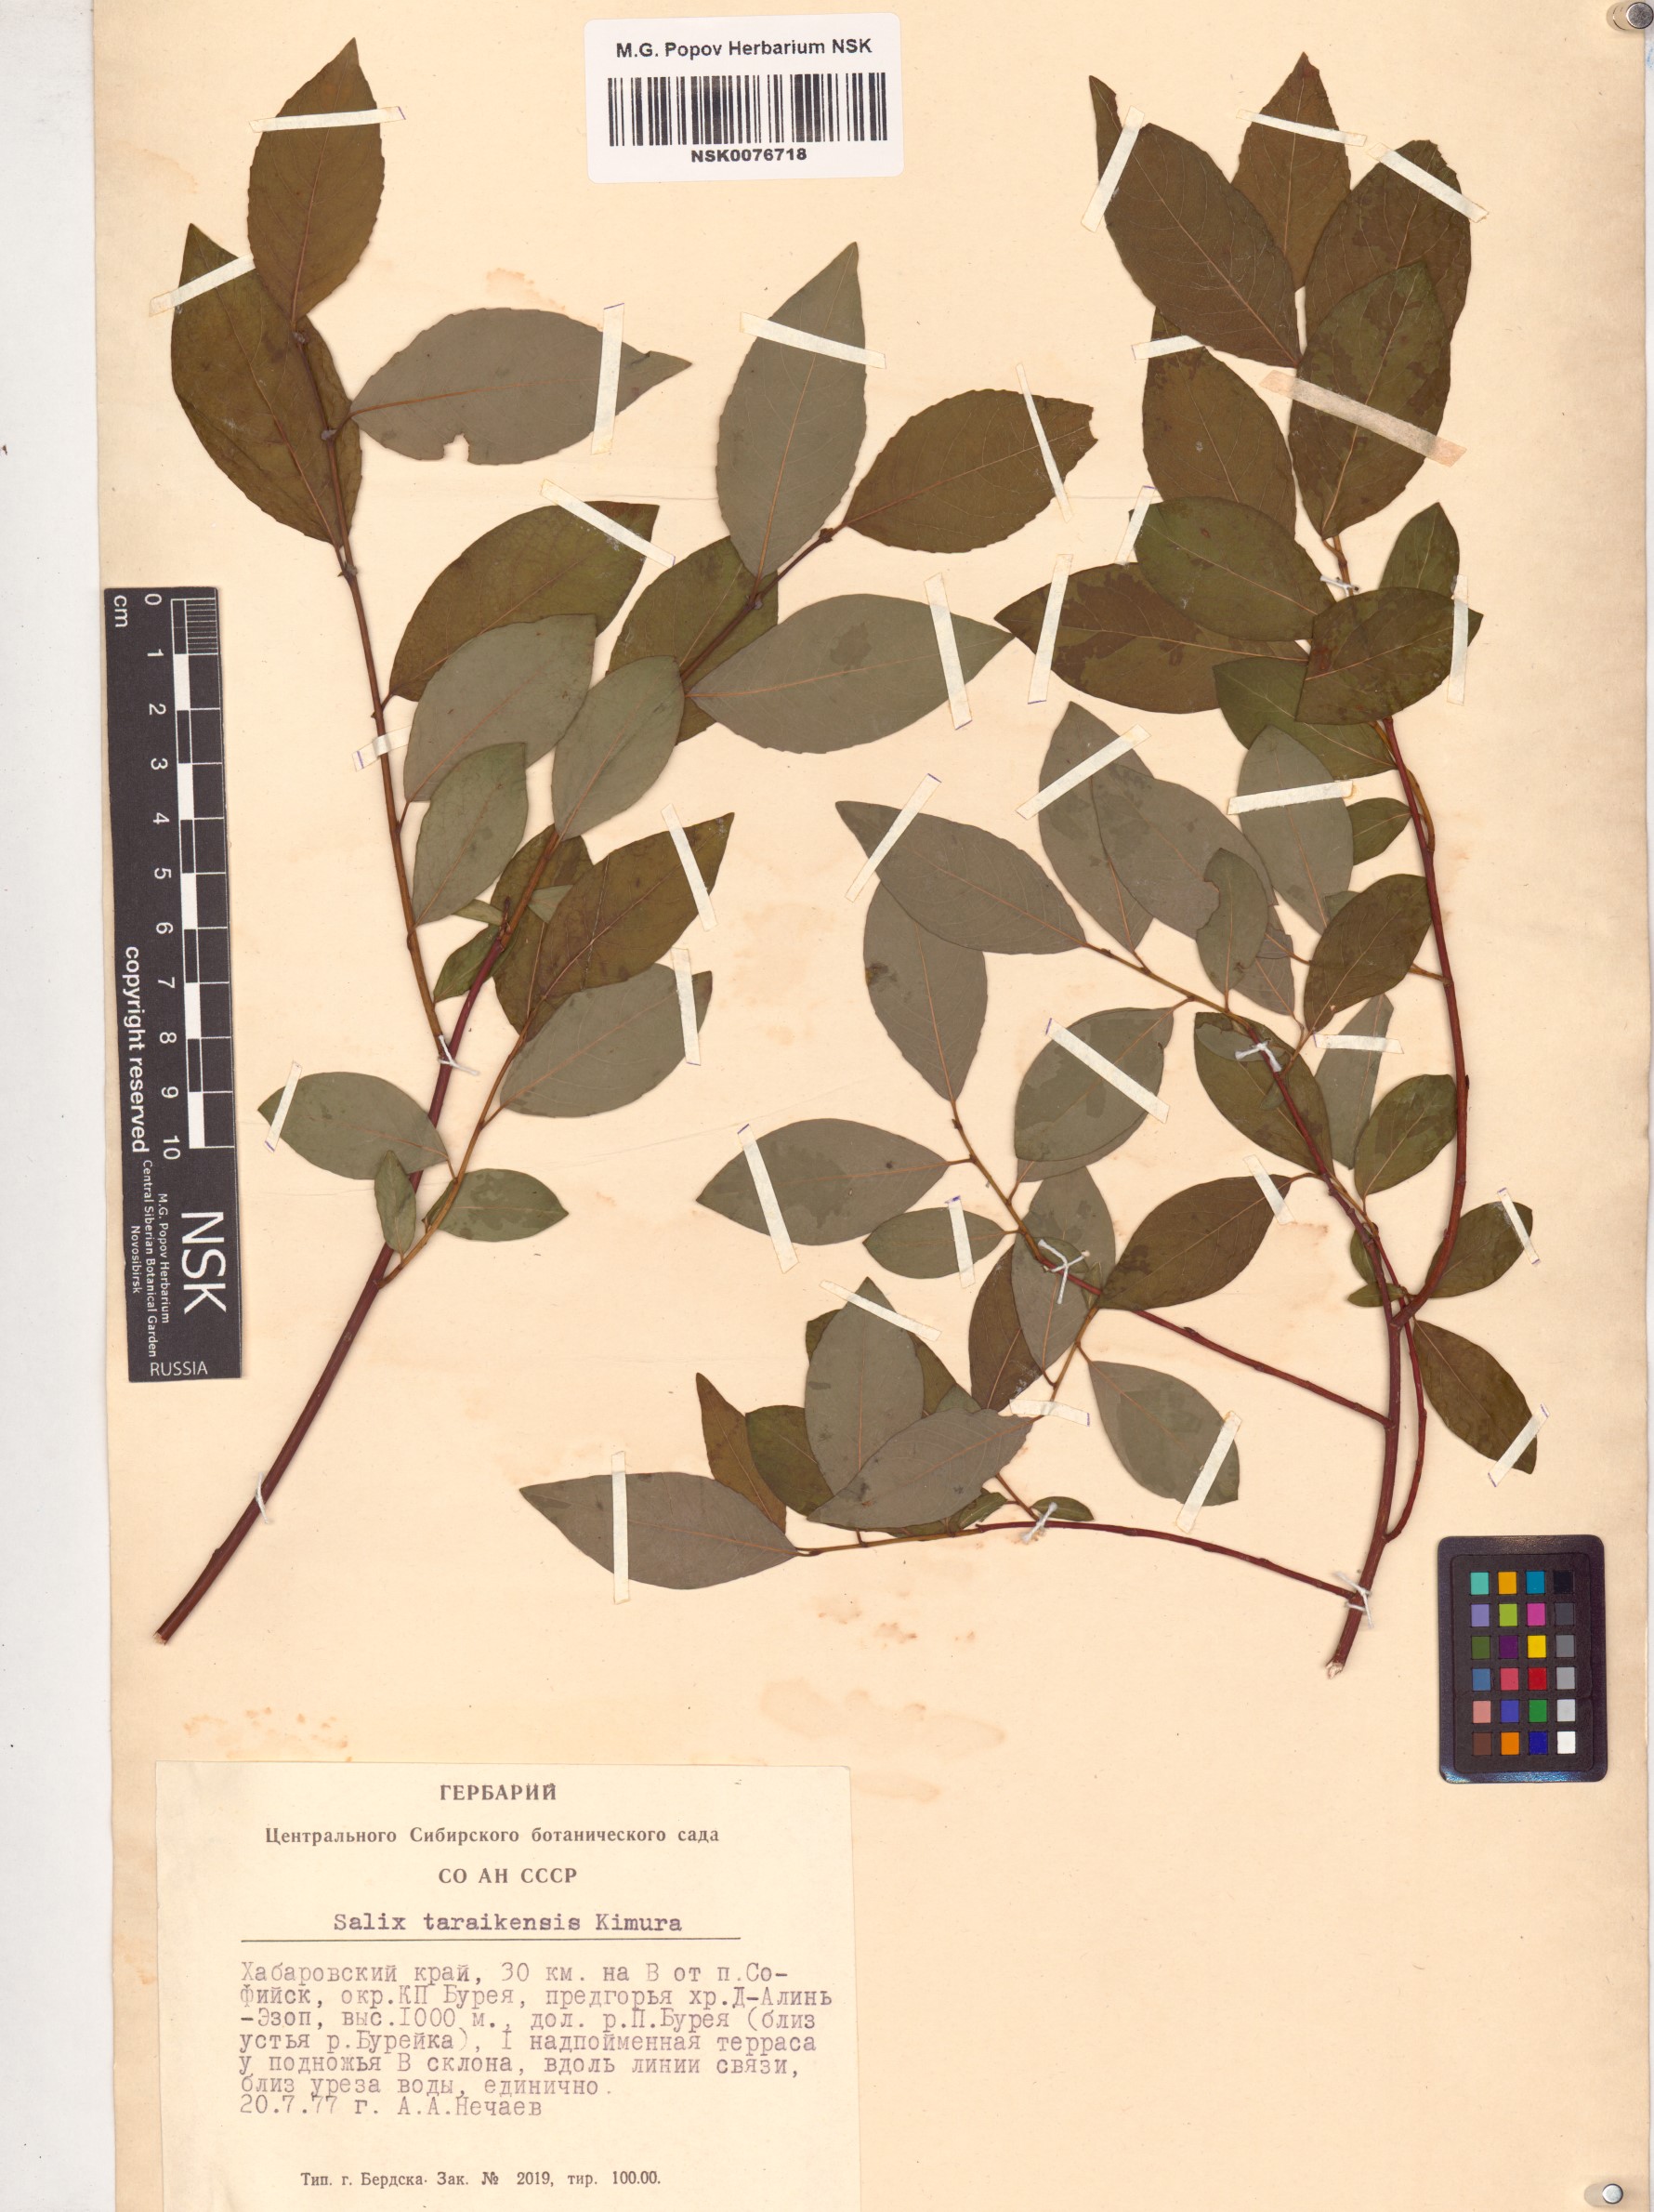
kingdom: Plantae
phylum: Tracheophyta
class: Magnoliopsida
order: Malpighiales
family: Salicaceae
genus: Salix
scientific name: Salix taraikensis
